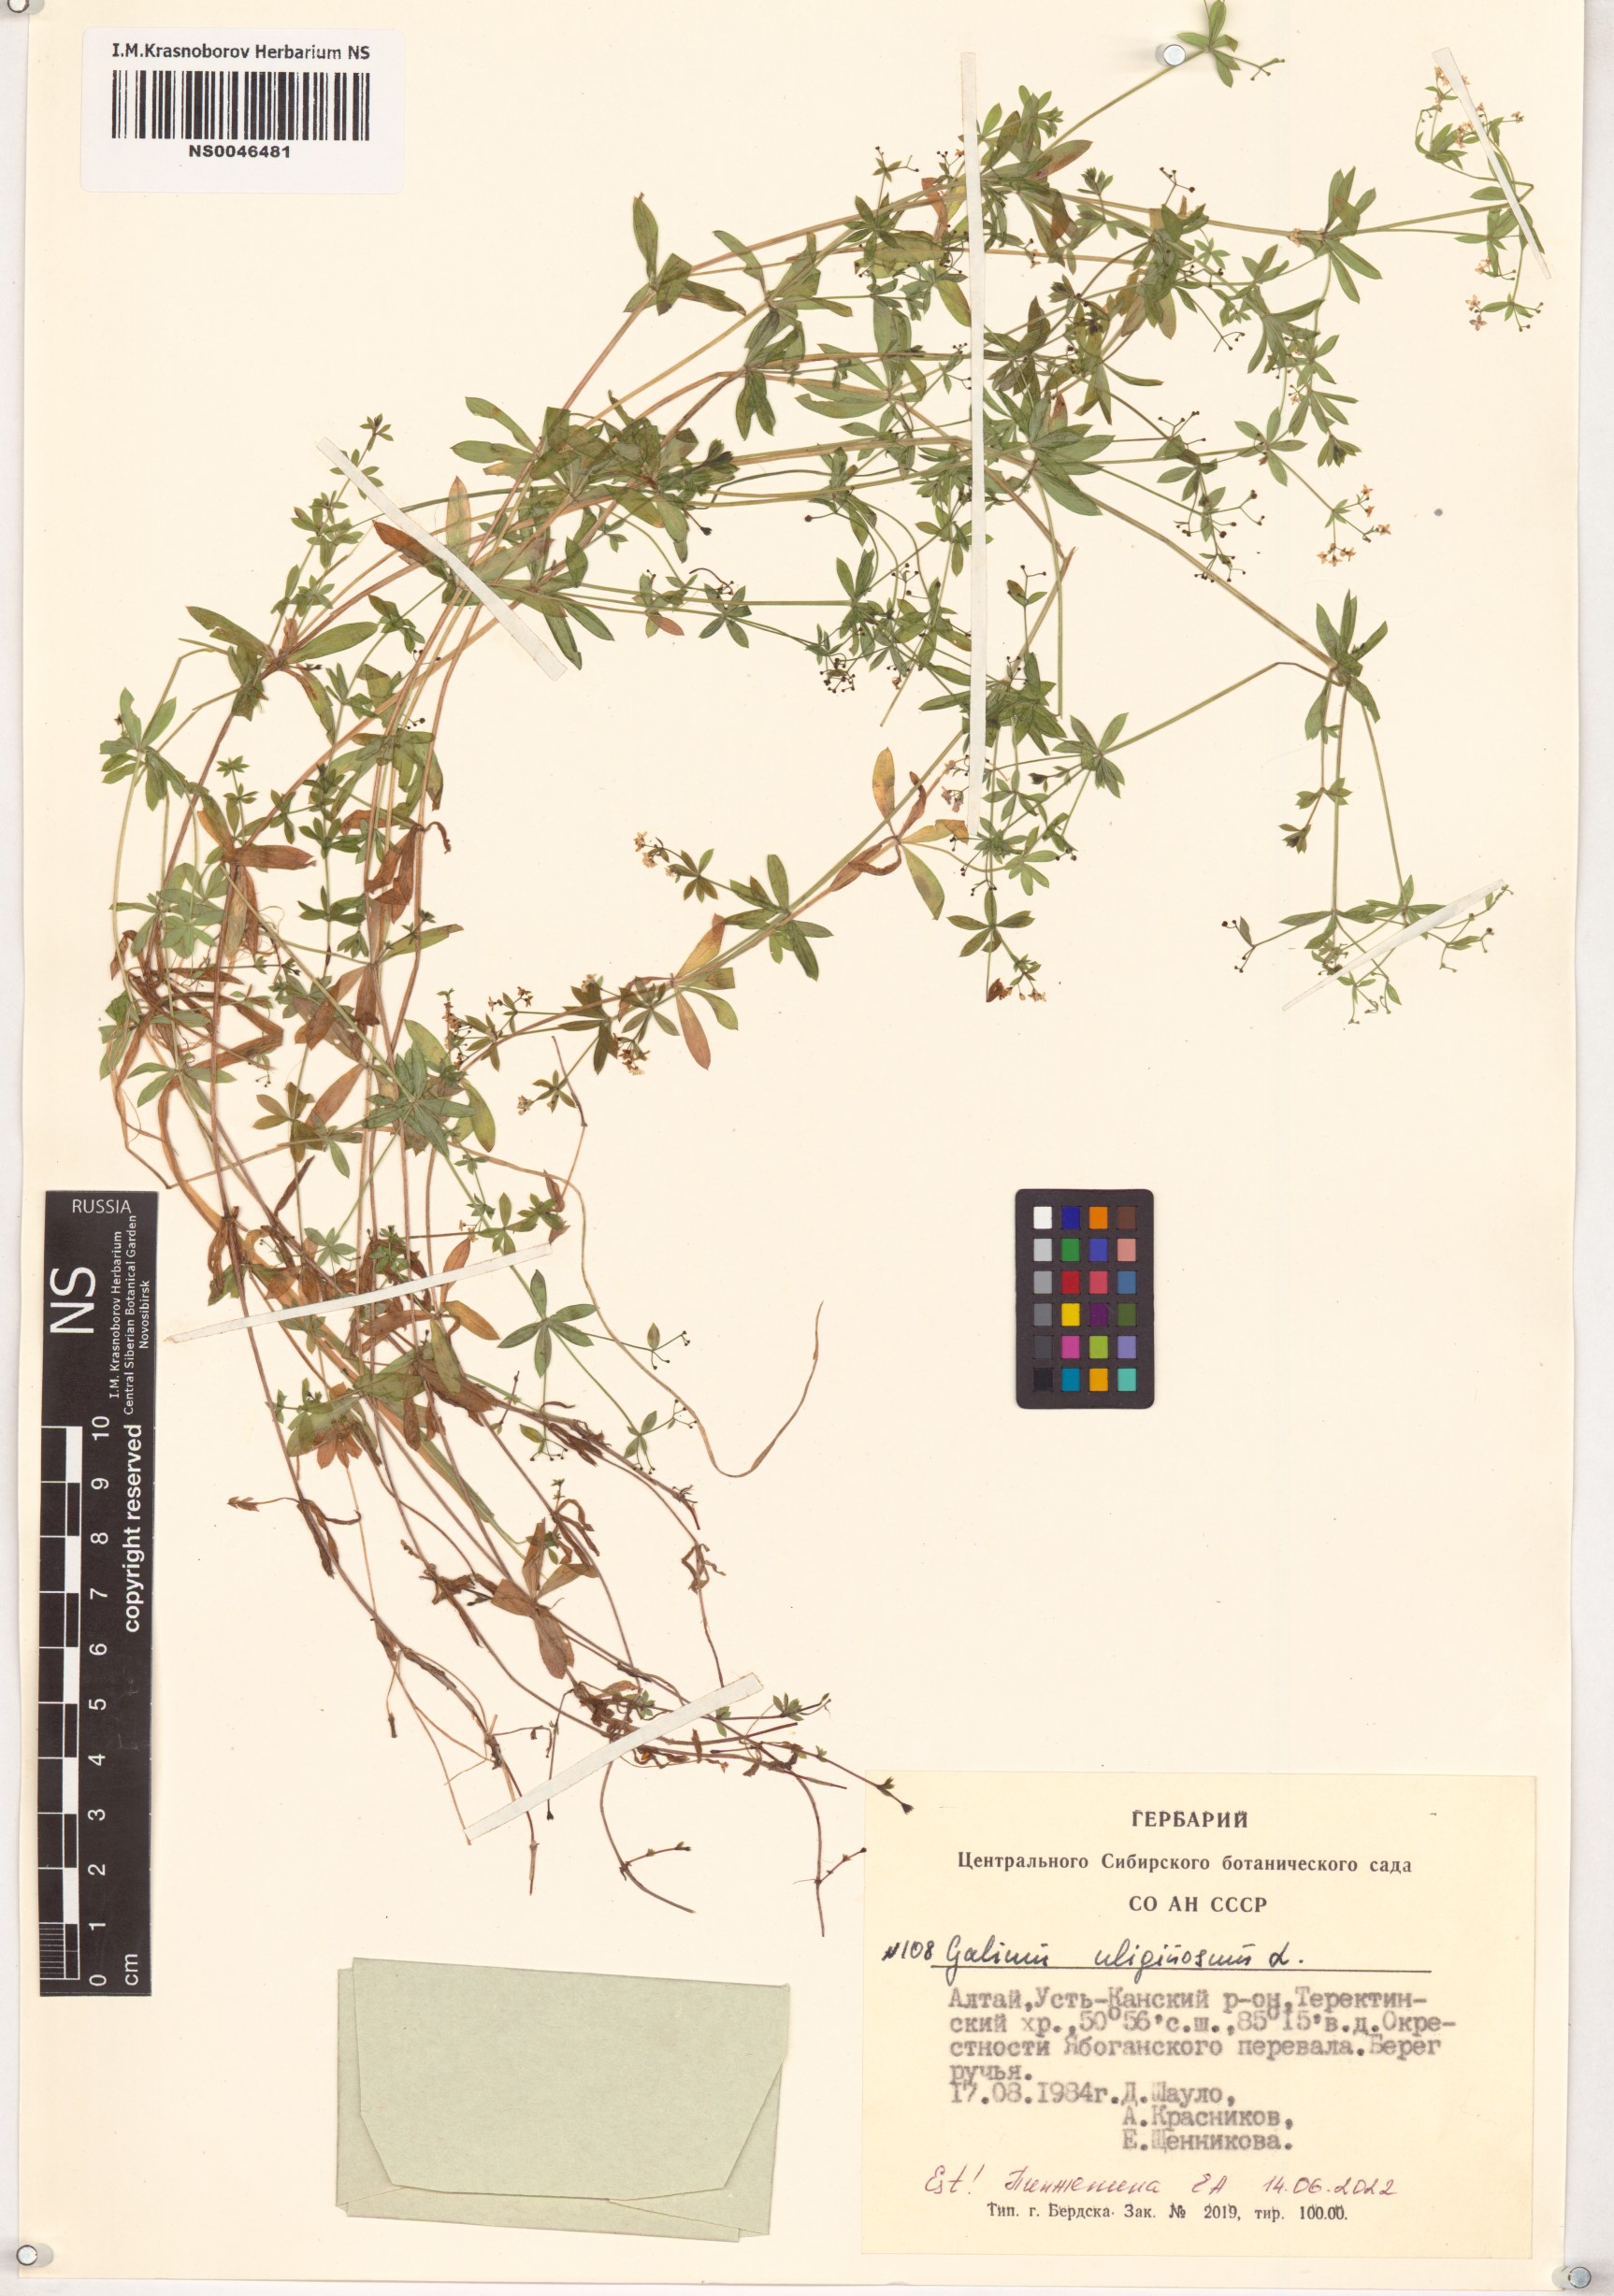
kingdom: Plantae
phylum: Tracheophyta
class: Magnoliopsida
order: Gentianales
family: Rubiaceae
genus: Galium
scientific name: Galium uliginosum
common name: Fen bedstraw
